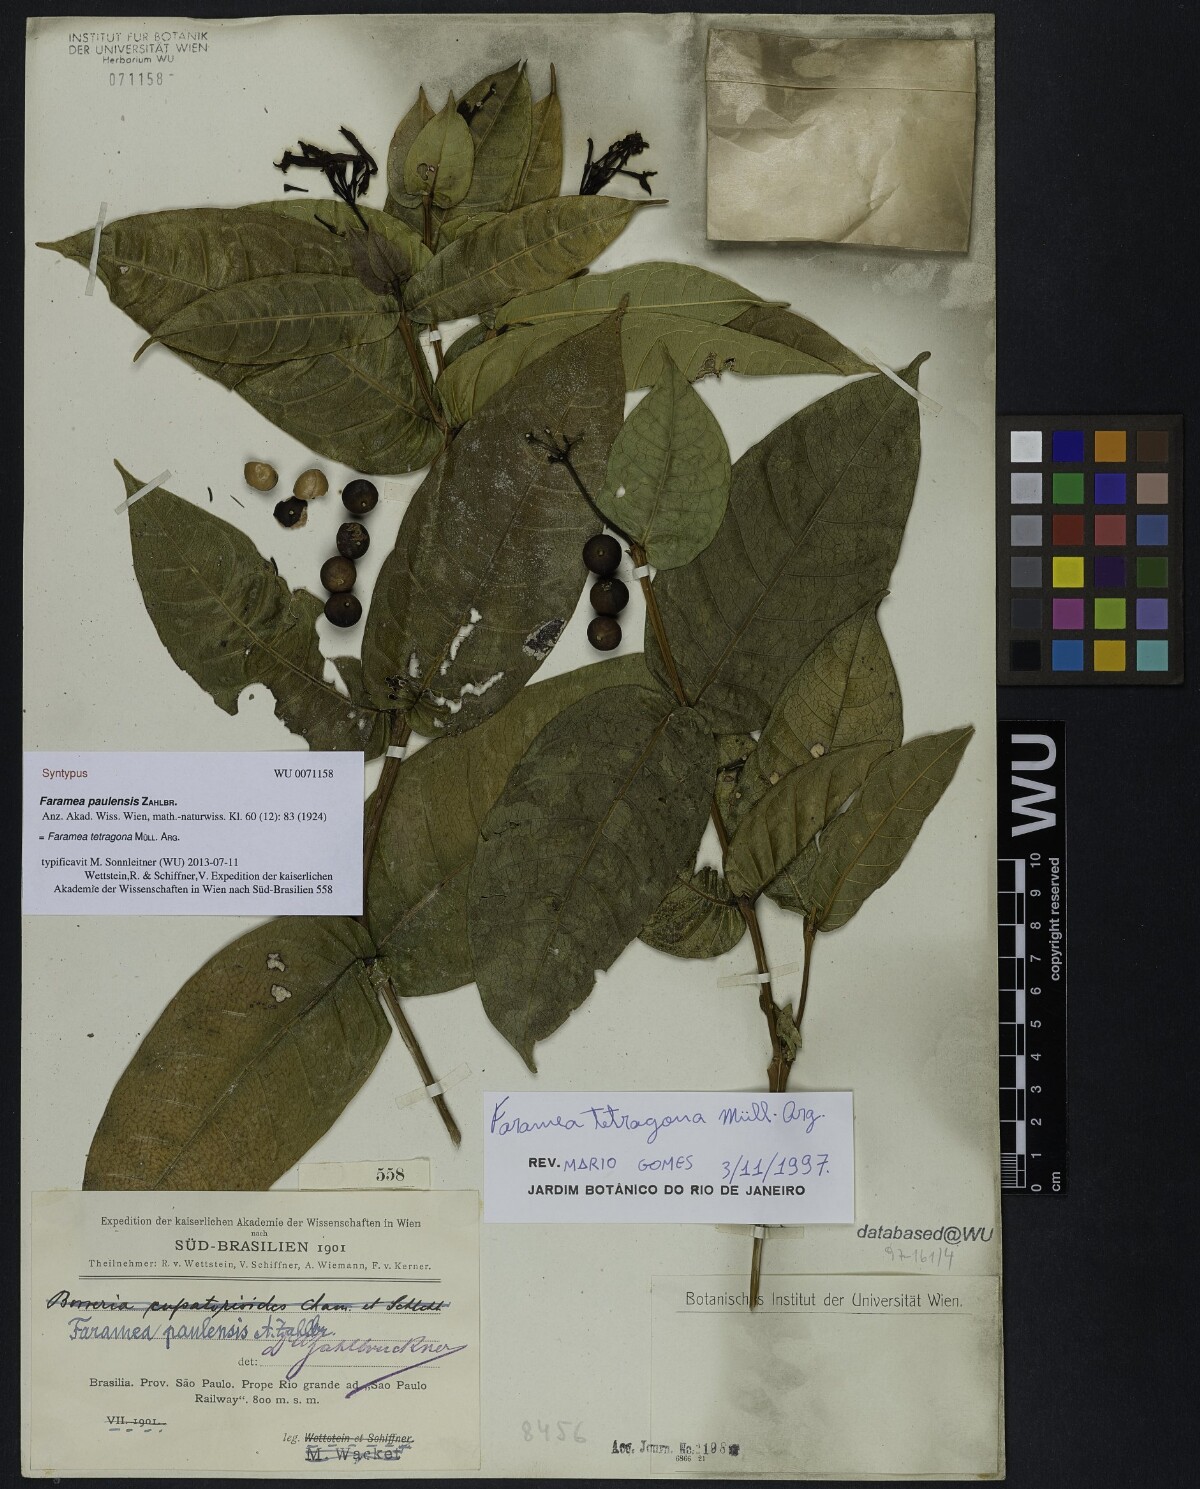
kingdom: Plantae
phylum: Tracheophyta
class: Magnoliopsida
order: Gentianales
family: Rubiaceae
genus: Faramea
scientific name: Faramea tetragona
